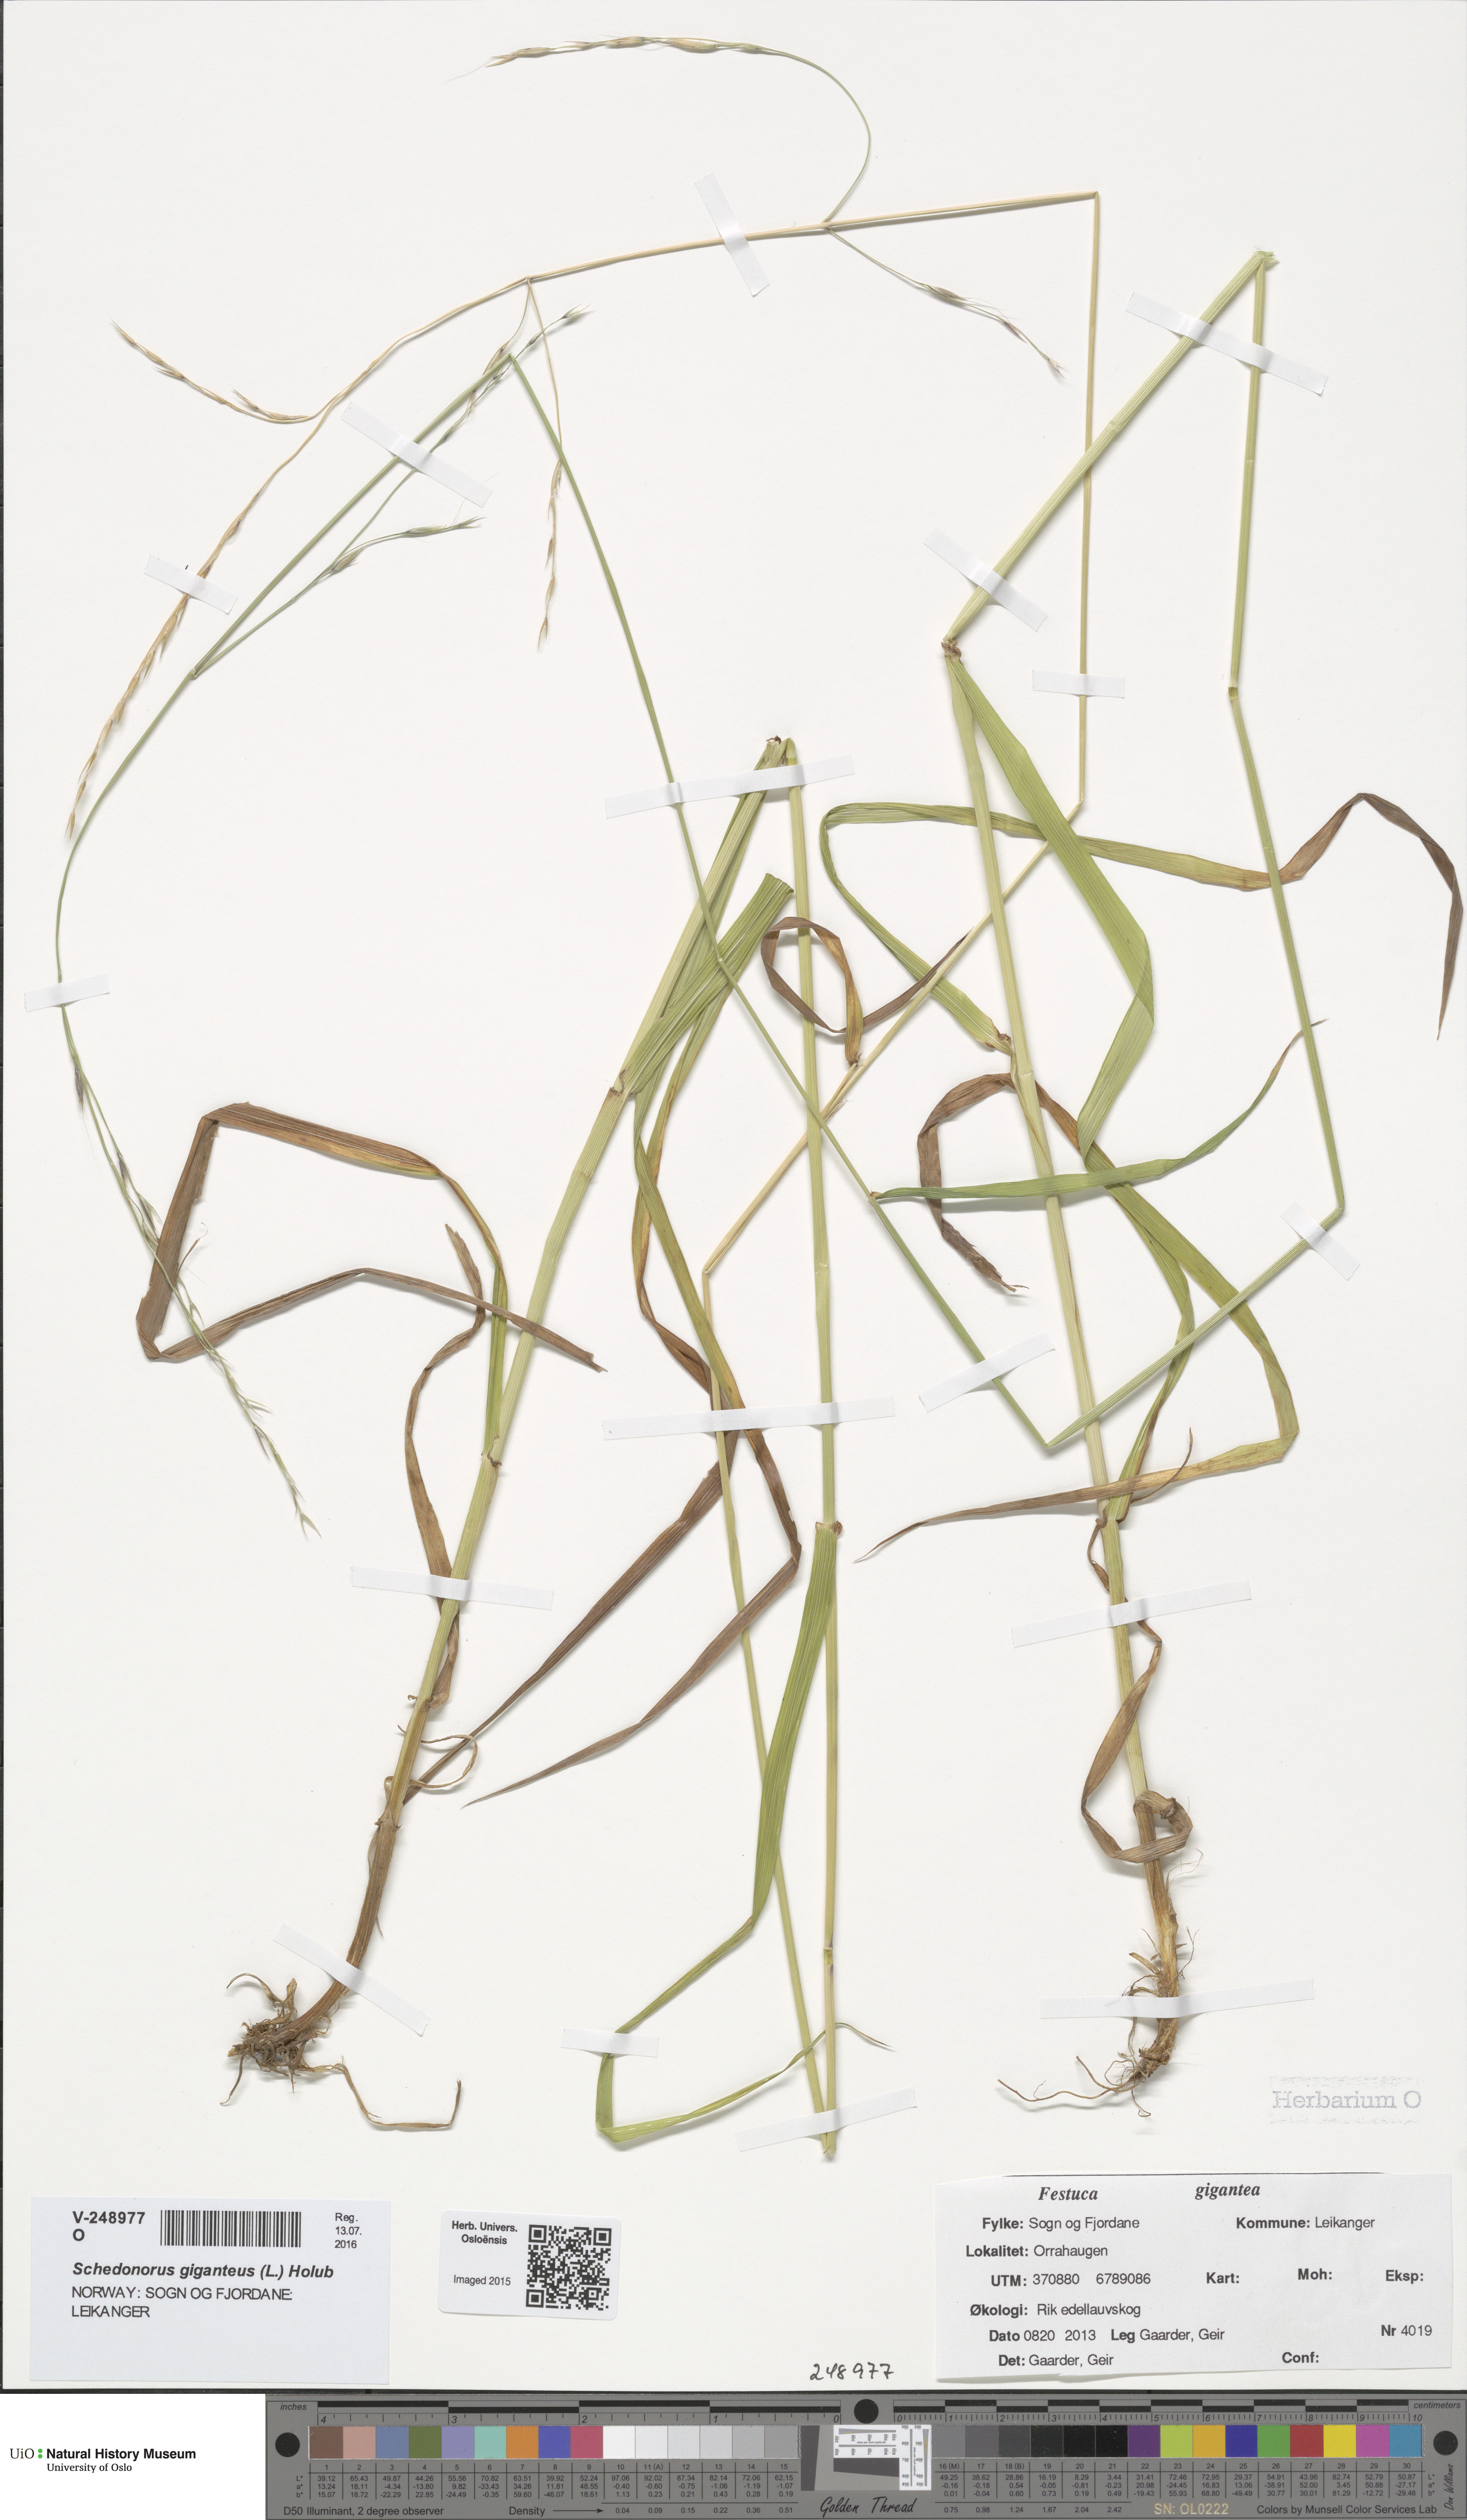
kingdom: Plantae
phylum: Tracheophyta
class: Liliopsida
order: Poales
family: Poaceae
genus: Lolium
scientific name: Lolium giganteum
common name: Giant fescue
